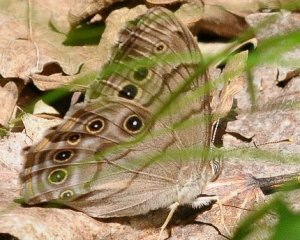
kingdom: Animalia
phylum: Arthropoda
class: Insecta
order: Lepidoptera
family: Nymphalidae
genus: Lethe
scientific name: Lethe anthedon
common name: Northern Pearly-Eye
